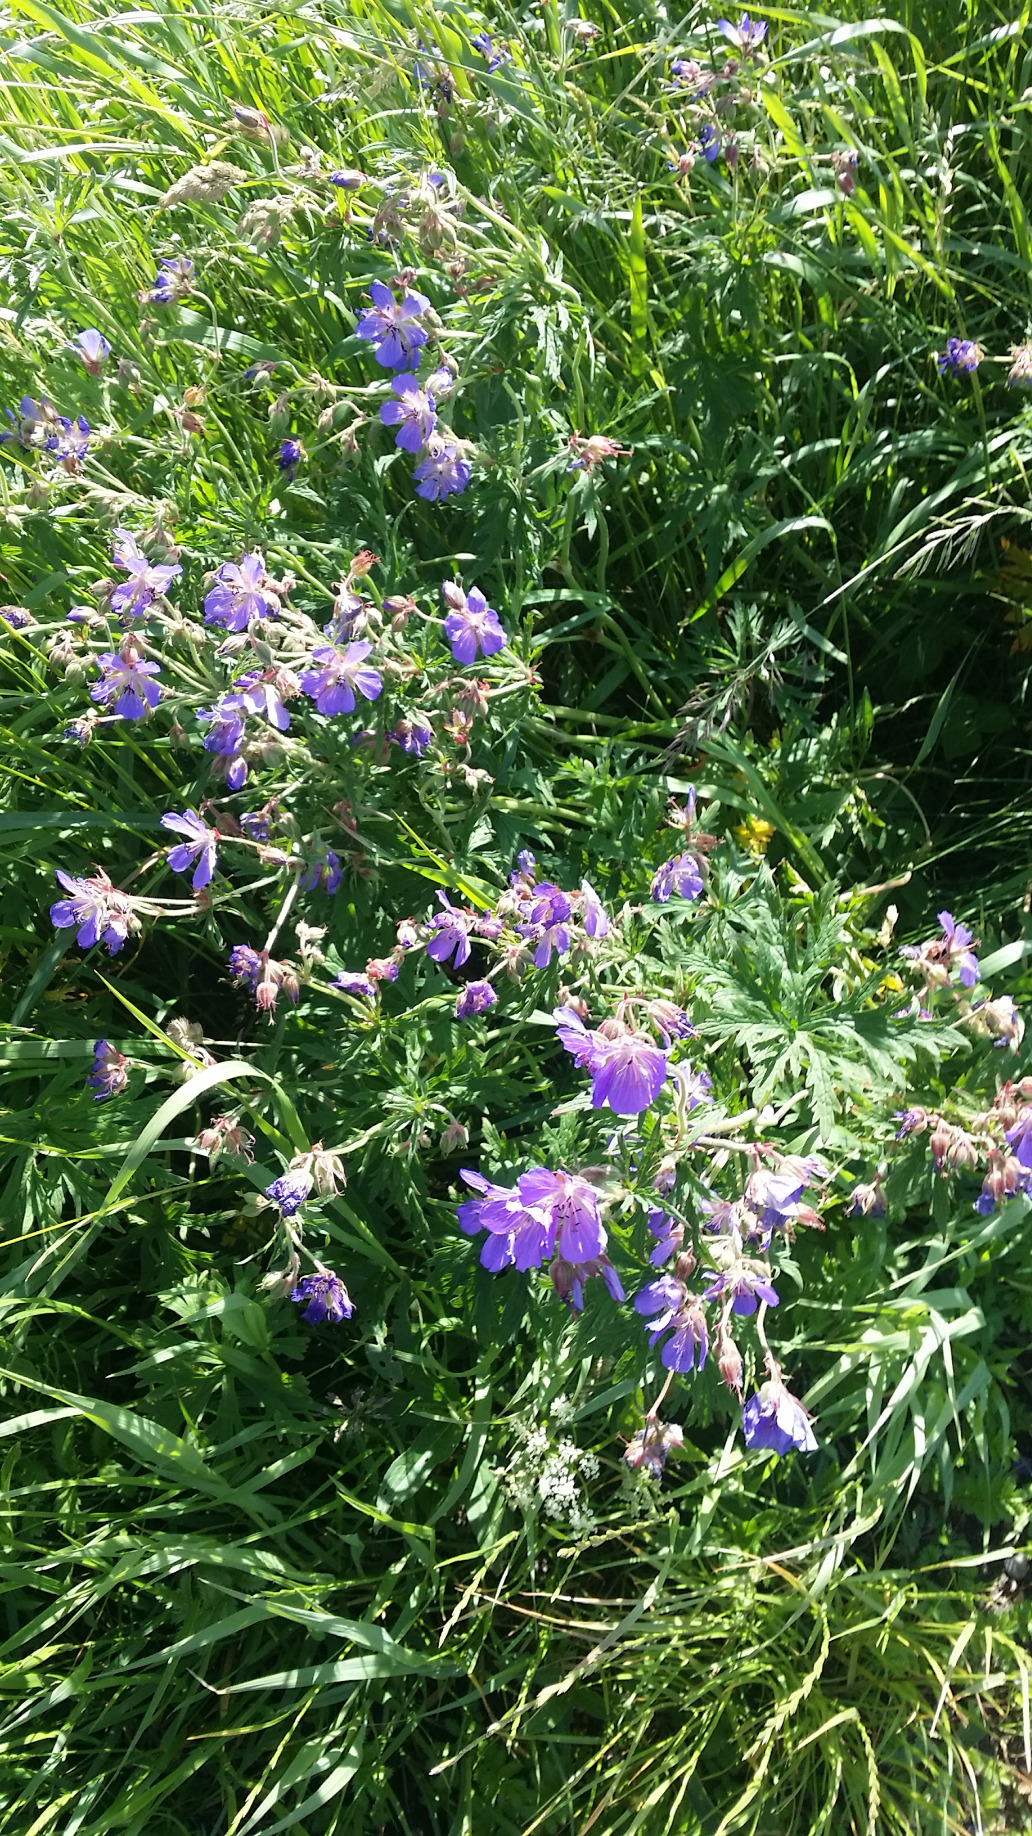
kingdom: Plantae
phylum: Tracheophyta
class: Magnoliopsida
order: Geraniales
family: Geraniaceae
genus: Geranium
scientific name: Geranium pratense
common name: Eng-storkenæb
